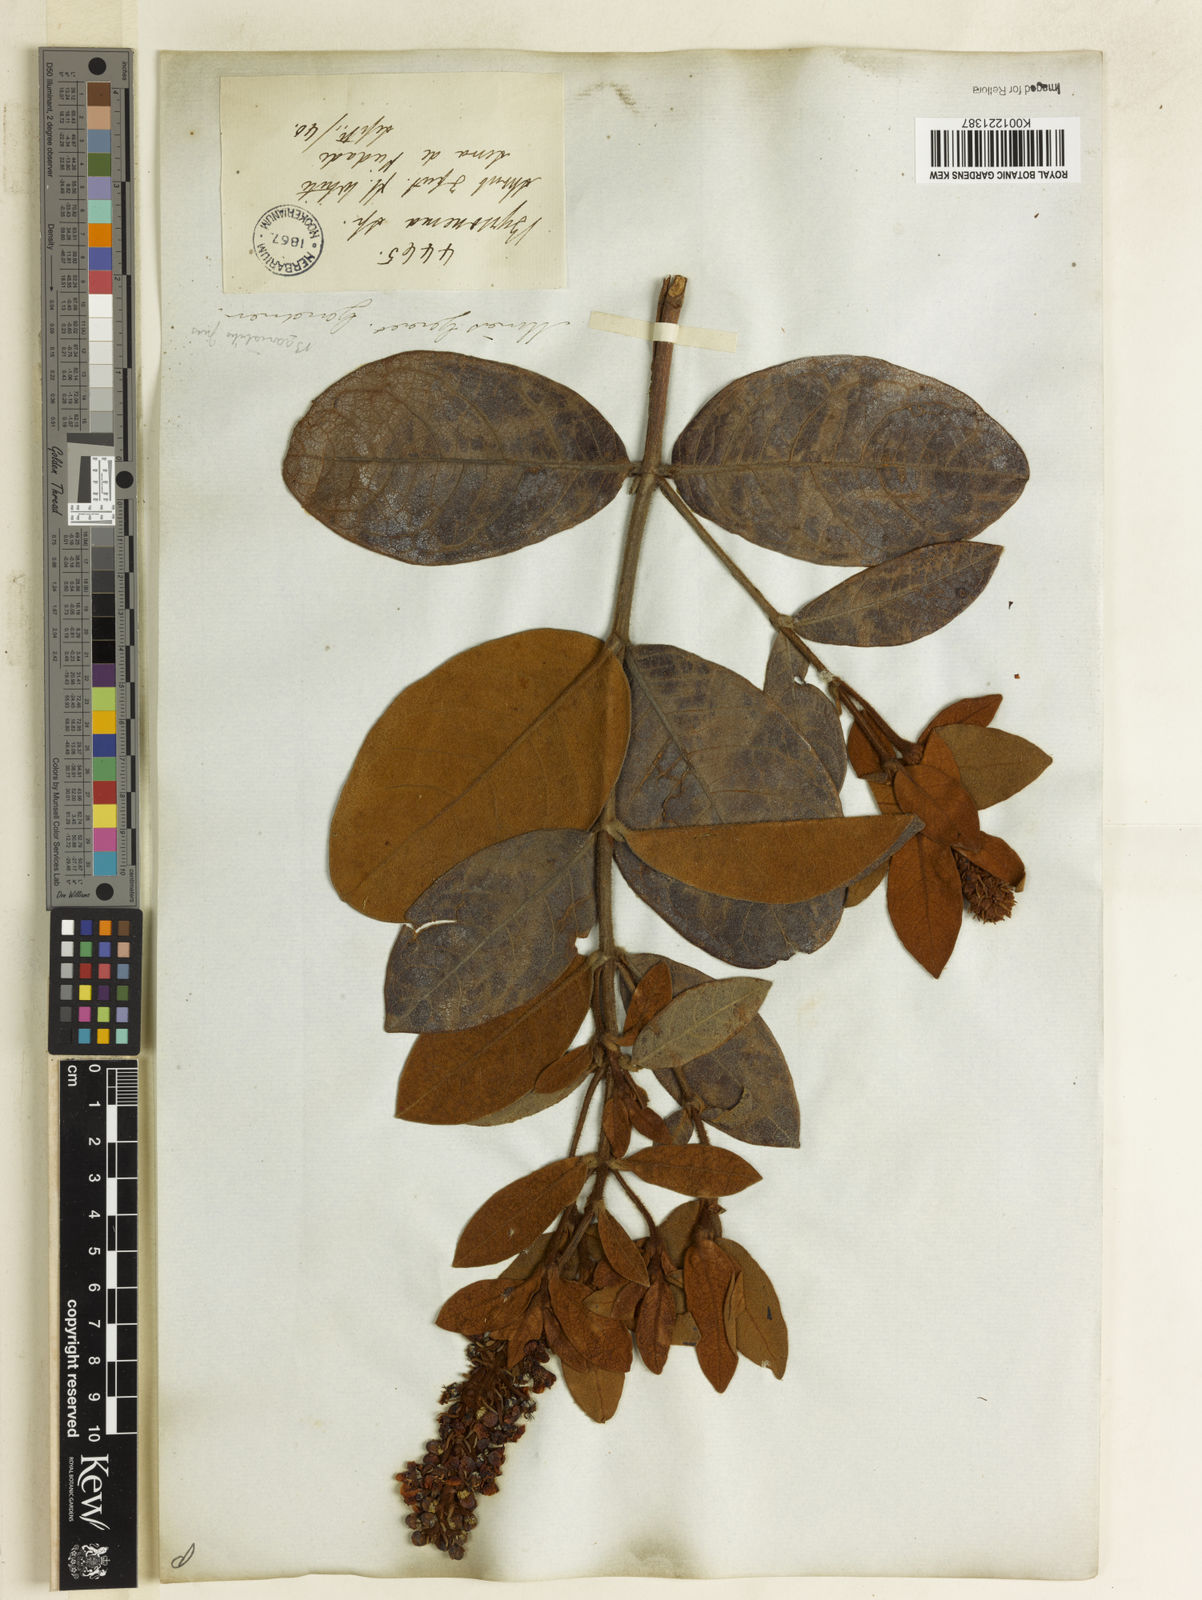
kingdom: Plantae
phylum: Tracheophyta
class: Magnoliopsida
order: Malpighiales
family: Malpighiaceae
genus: Byrsonima
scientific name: Byrsonima variabilis
